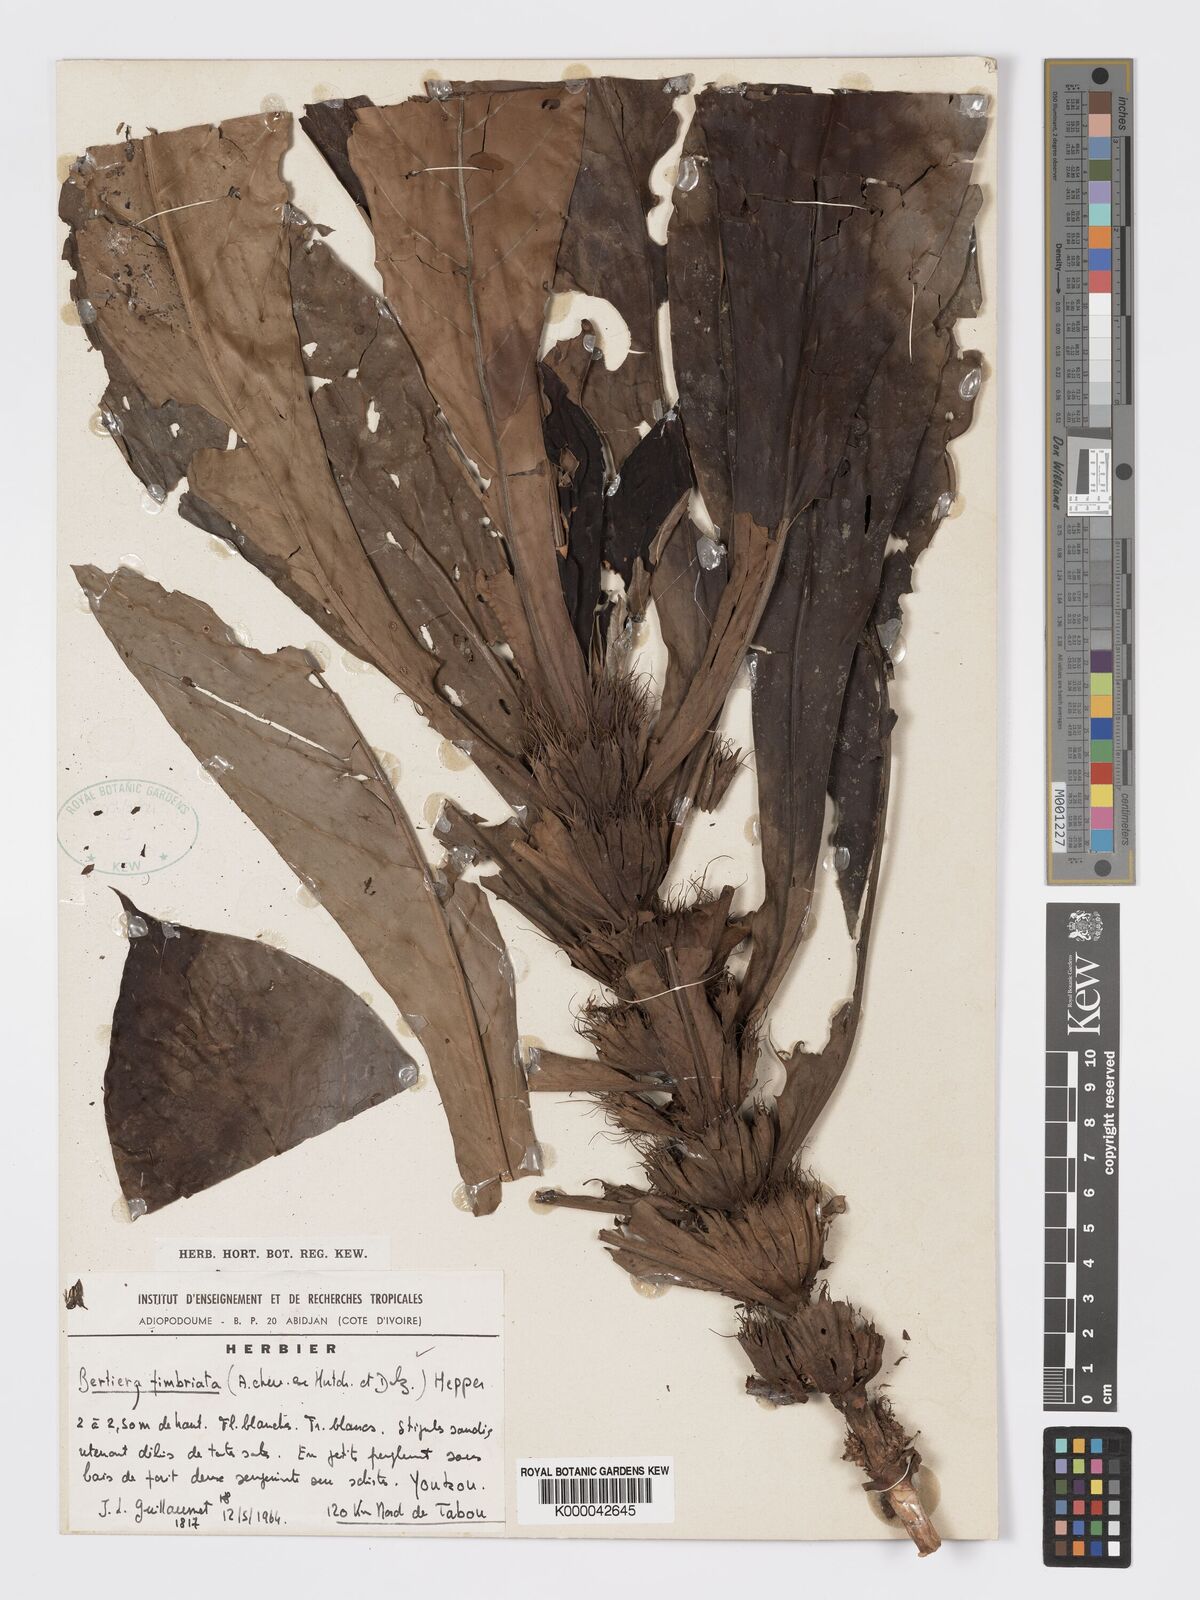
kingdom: Plantae
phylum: Tracheophyta
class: Magnoliopsida
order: Gentianales
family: Rubiaceae
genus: Bertiera
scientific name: Bertiera fimbriata
